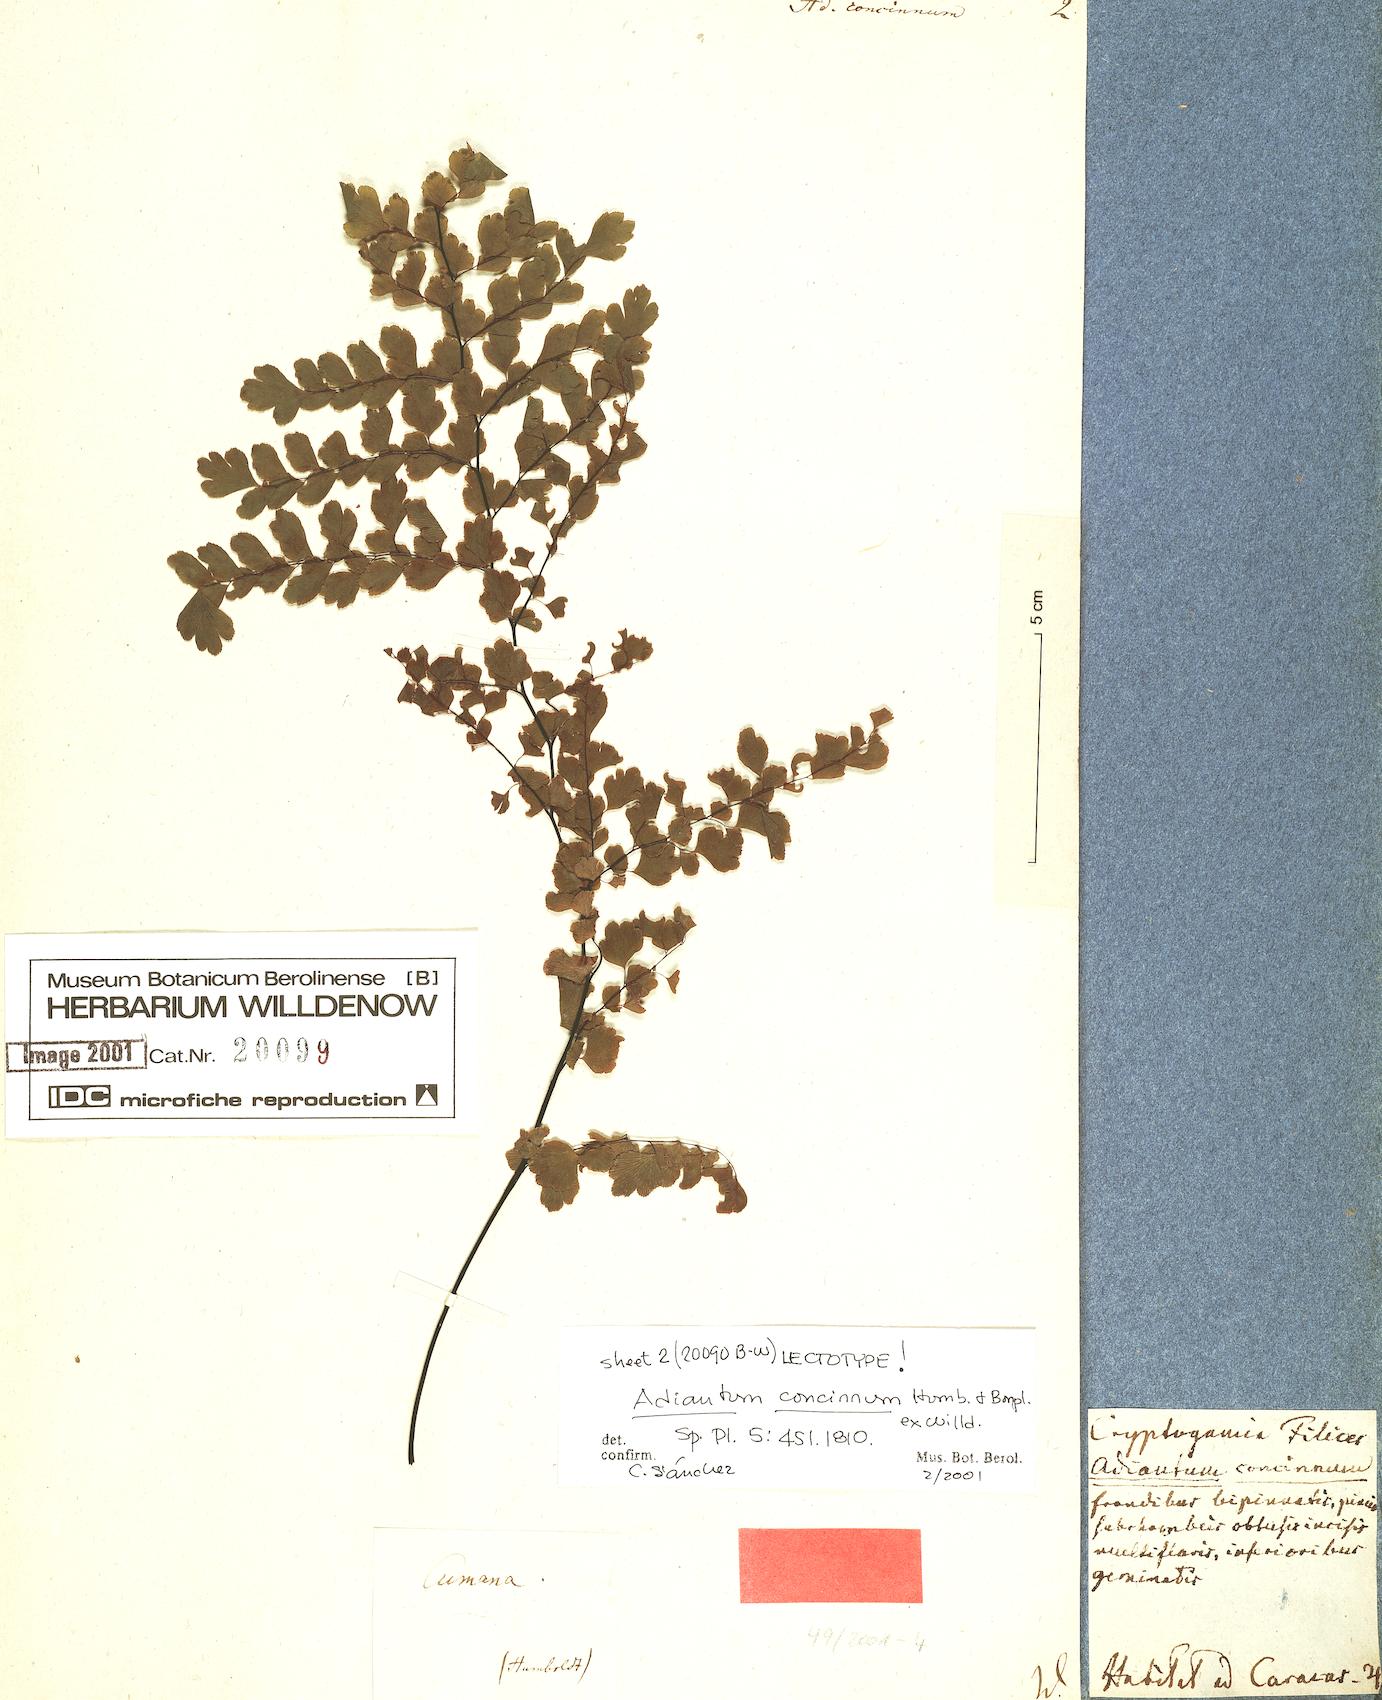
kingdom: Plantae
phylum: Tracheophyta
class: Polypodiopsida
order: Polypodiales
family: Pteridaceae
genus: Adiantum
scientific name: Adiantum concinnum
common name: Brittle maidenhair fern
